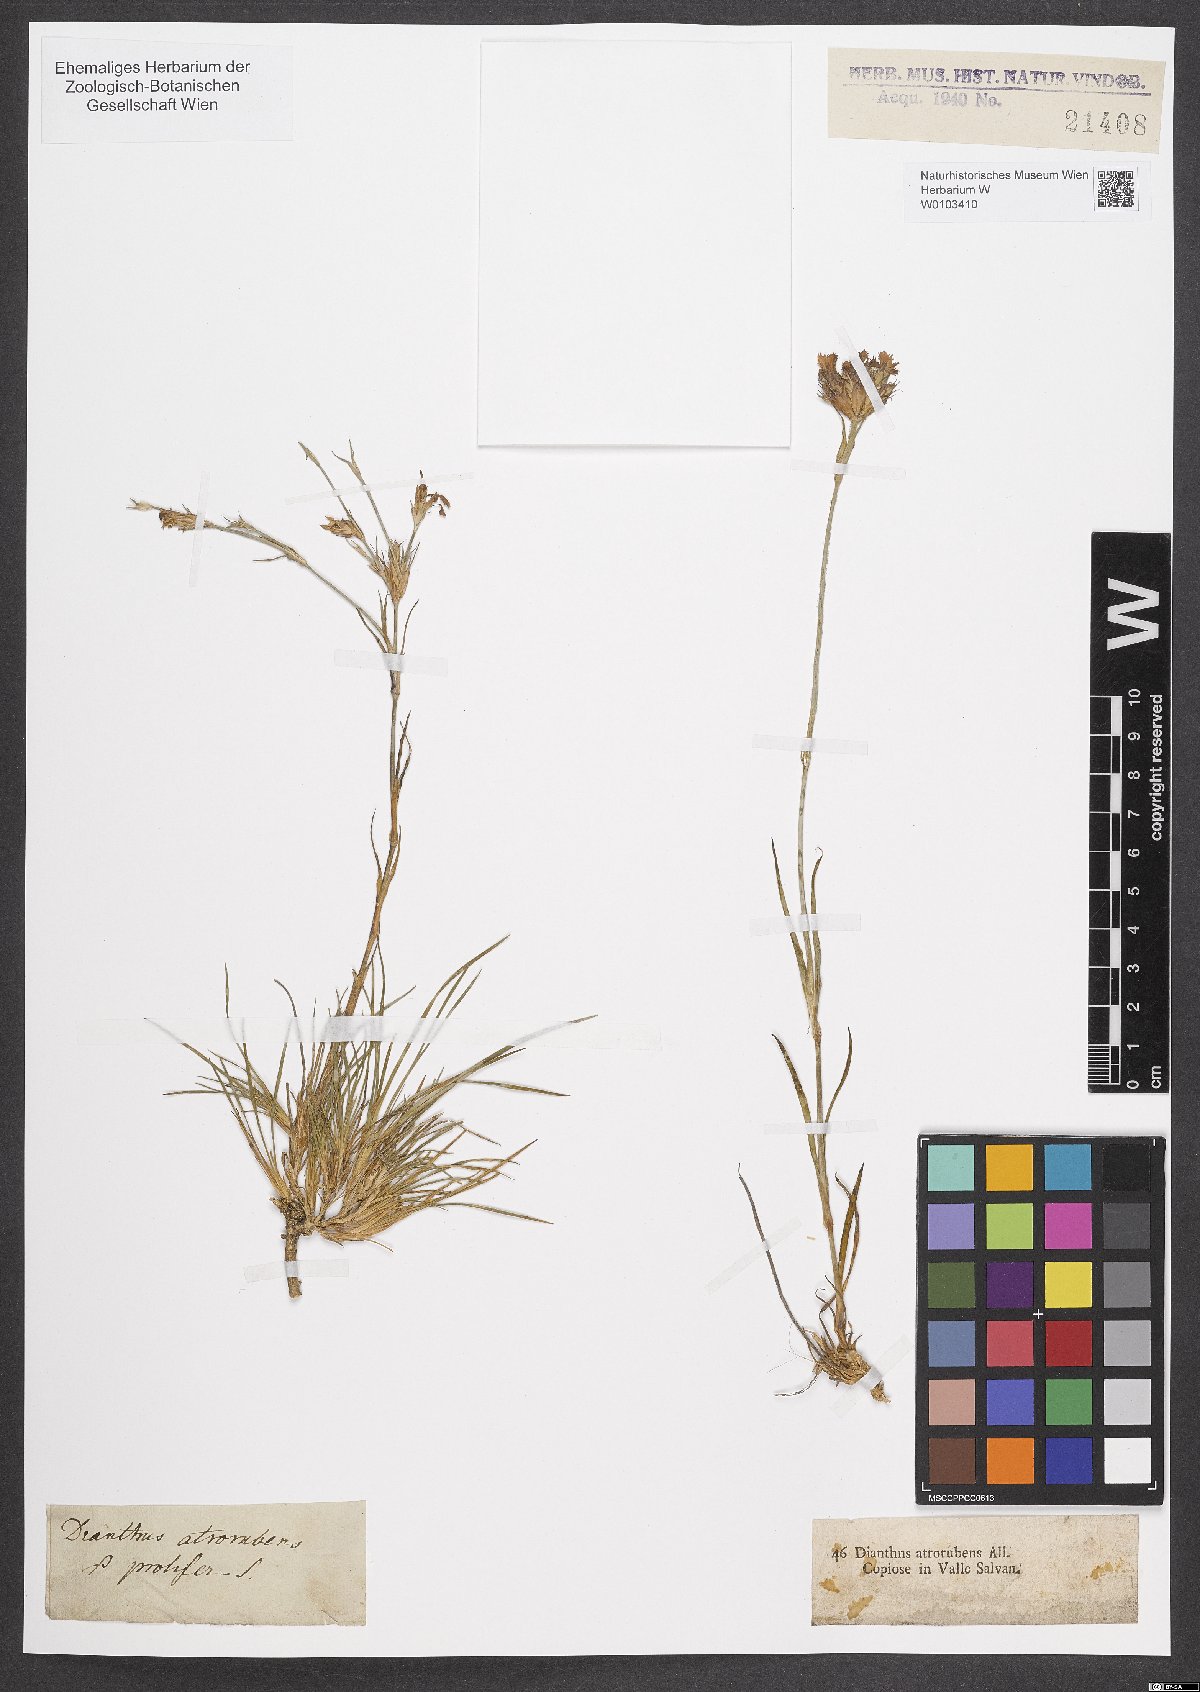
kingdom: Plantae
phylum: Tracheophyta
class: Magnoliopsida
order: Caryophyllales
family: Caryophyllaceae
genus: Dianthus
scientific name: Dianthus carthusianorum
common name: Carthusian pink
